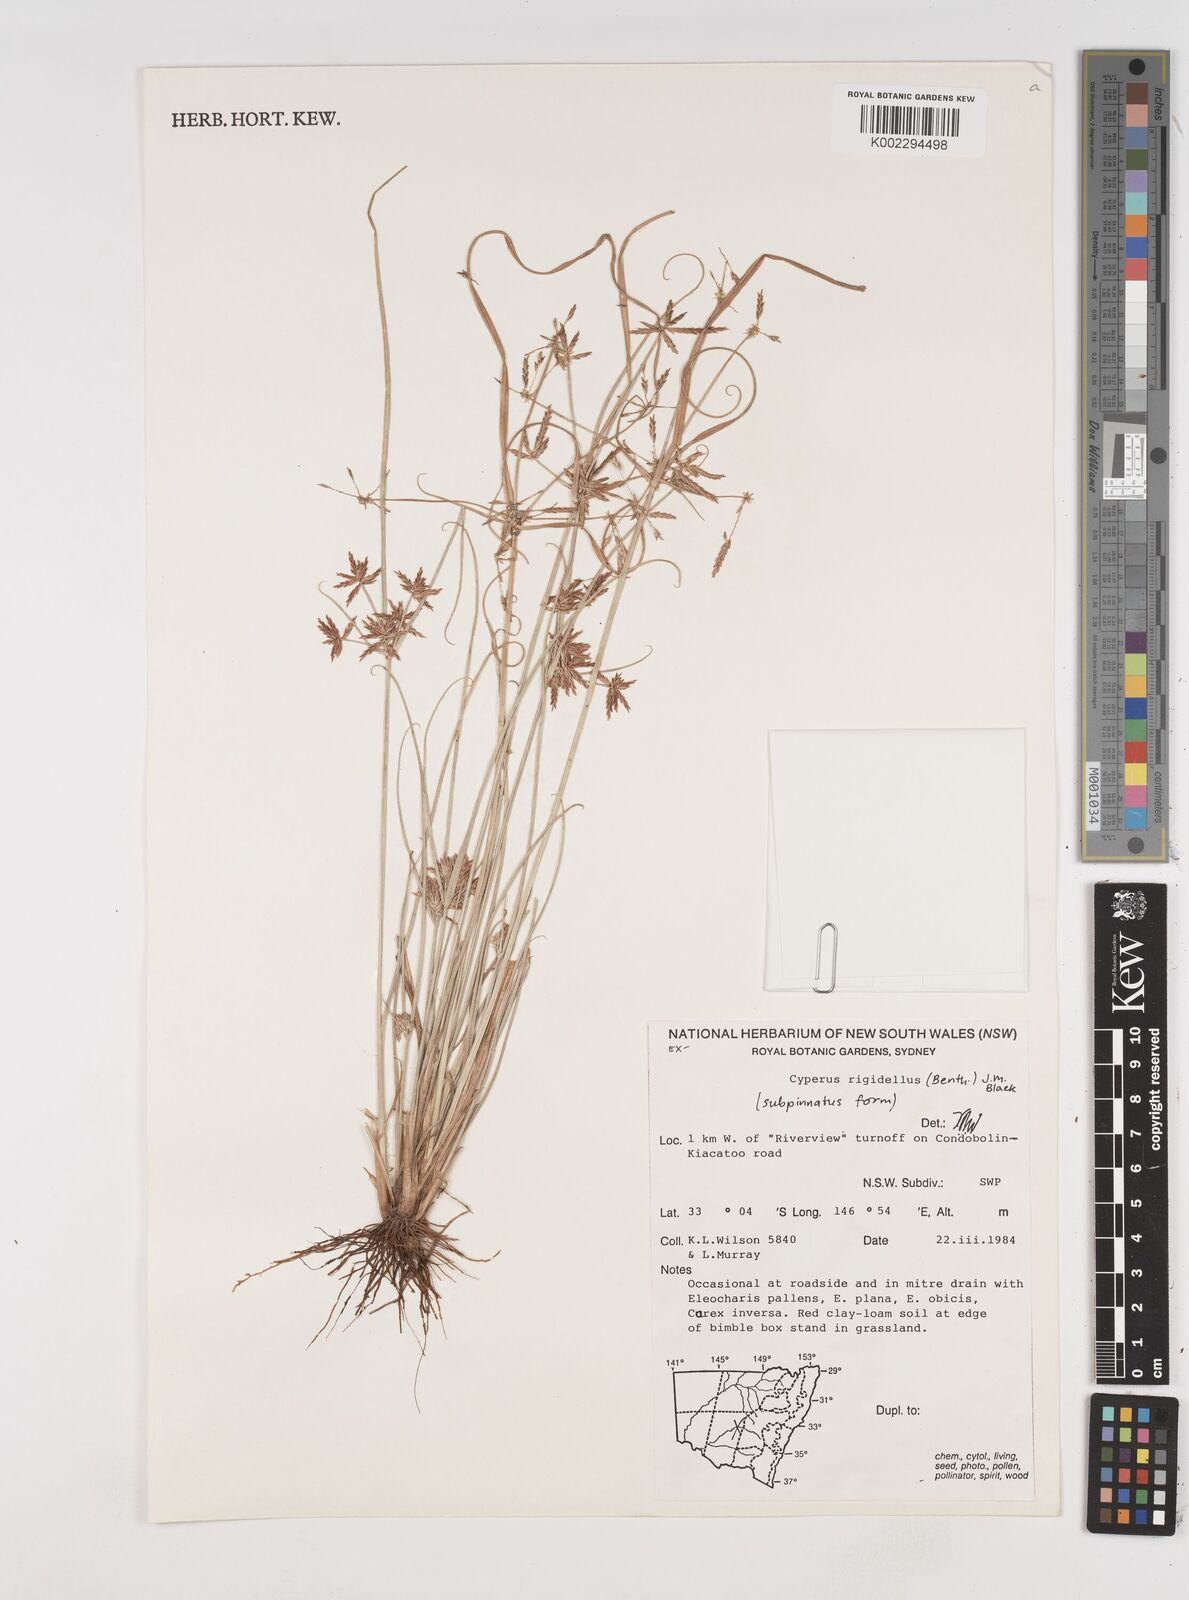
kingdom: Plantae
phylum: Tracheophyta
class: Liliopsida
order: Poales
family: Cyperaceae
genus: Cyperus
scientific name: Cyperus rigidellus
